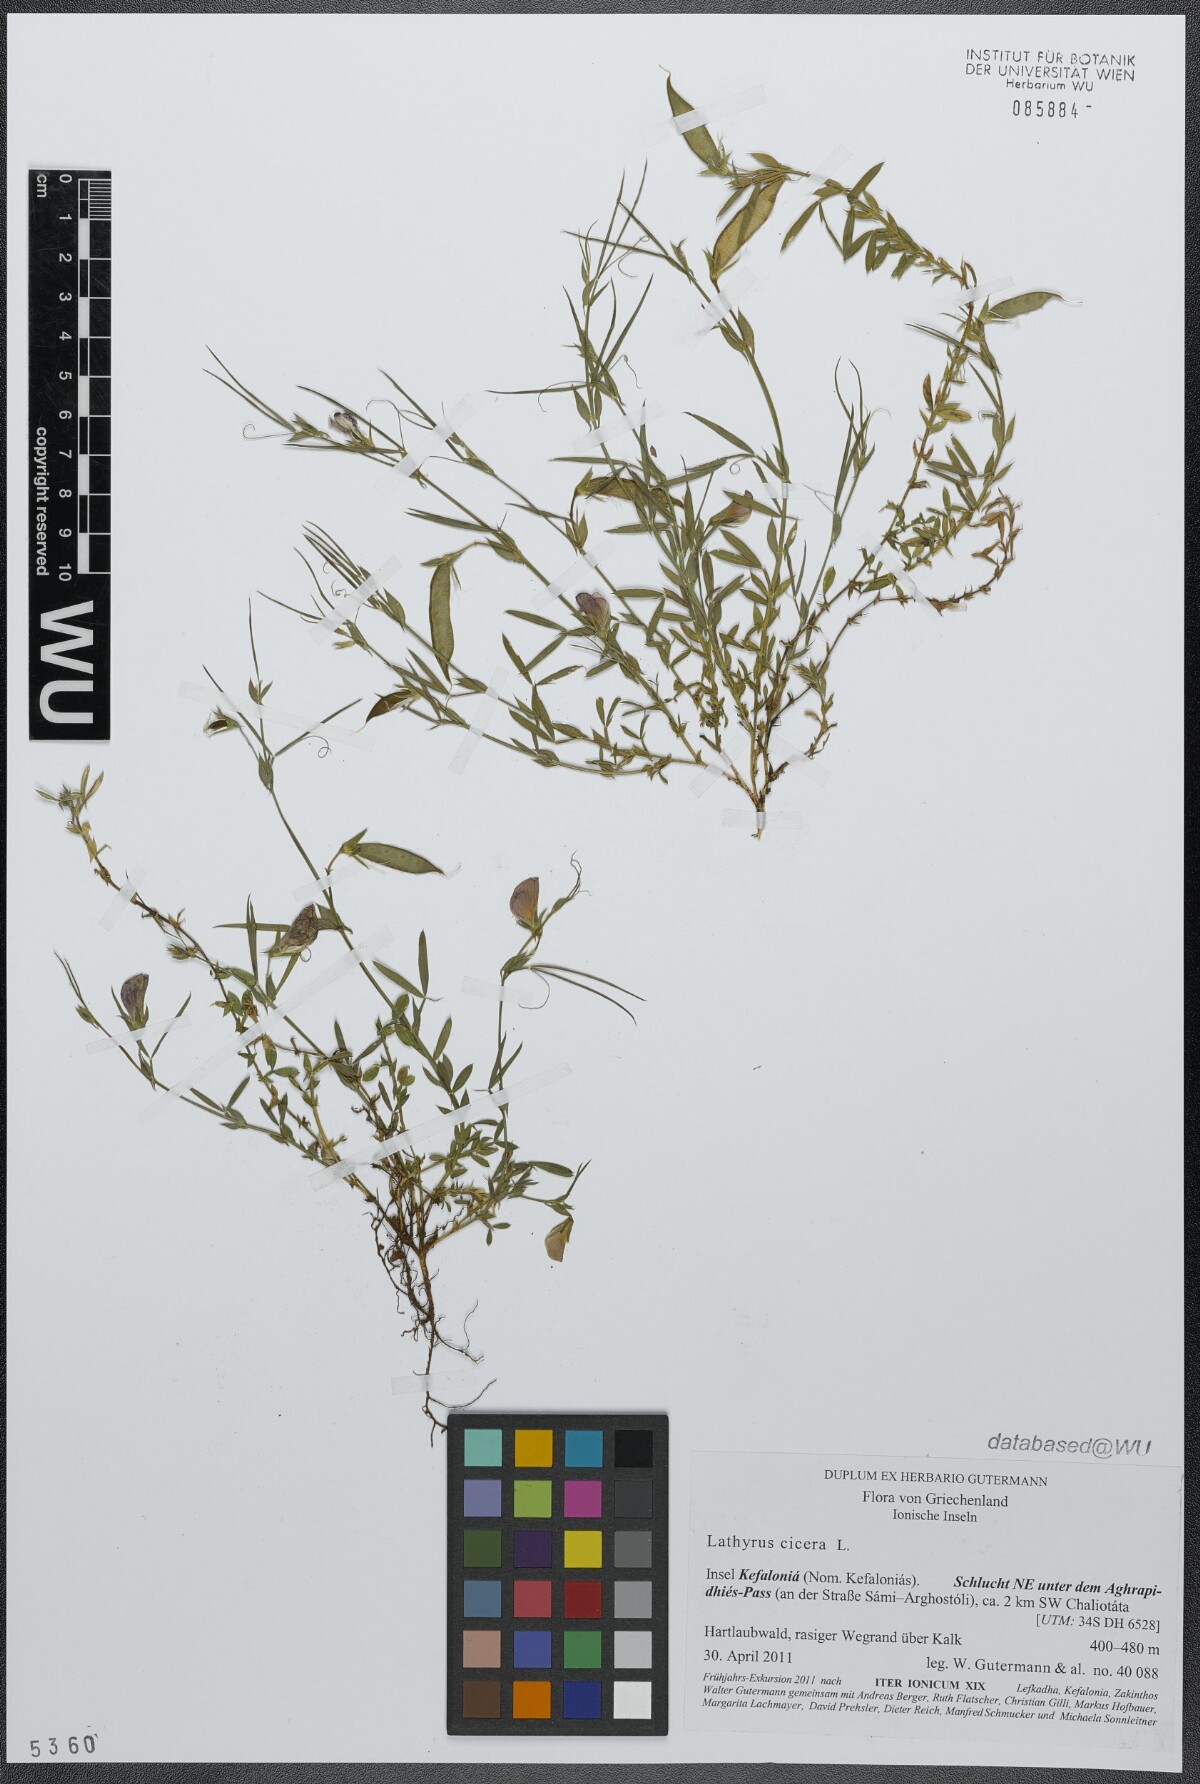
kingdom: Plantae
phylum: Tracheophyta
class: Magnoliopsida
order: Fabales
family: Fabaceae
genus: Lathyrus
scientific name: Lathyrus cicera
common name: Red vetchling
